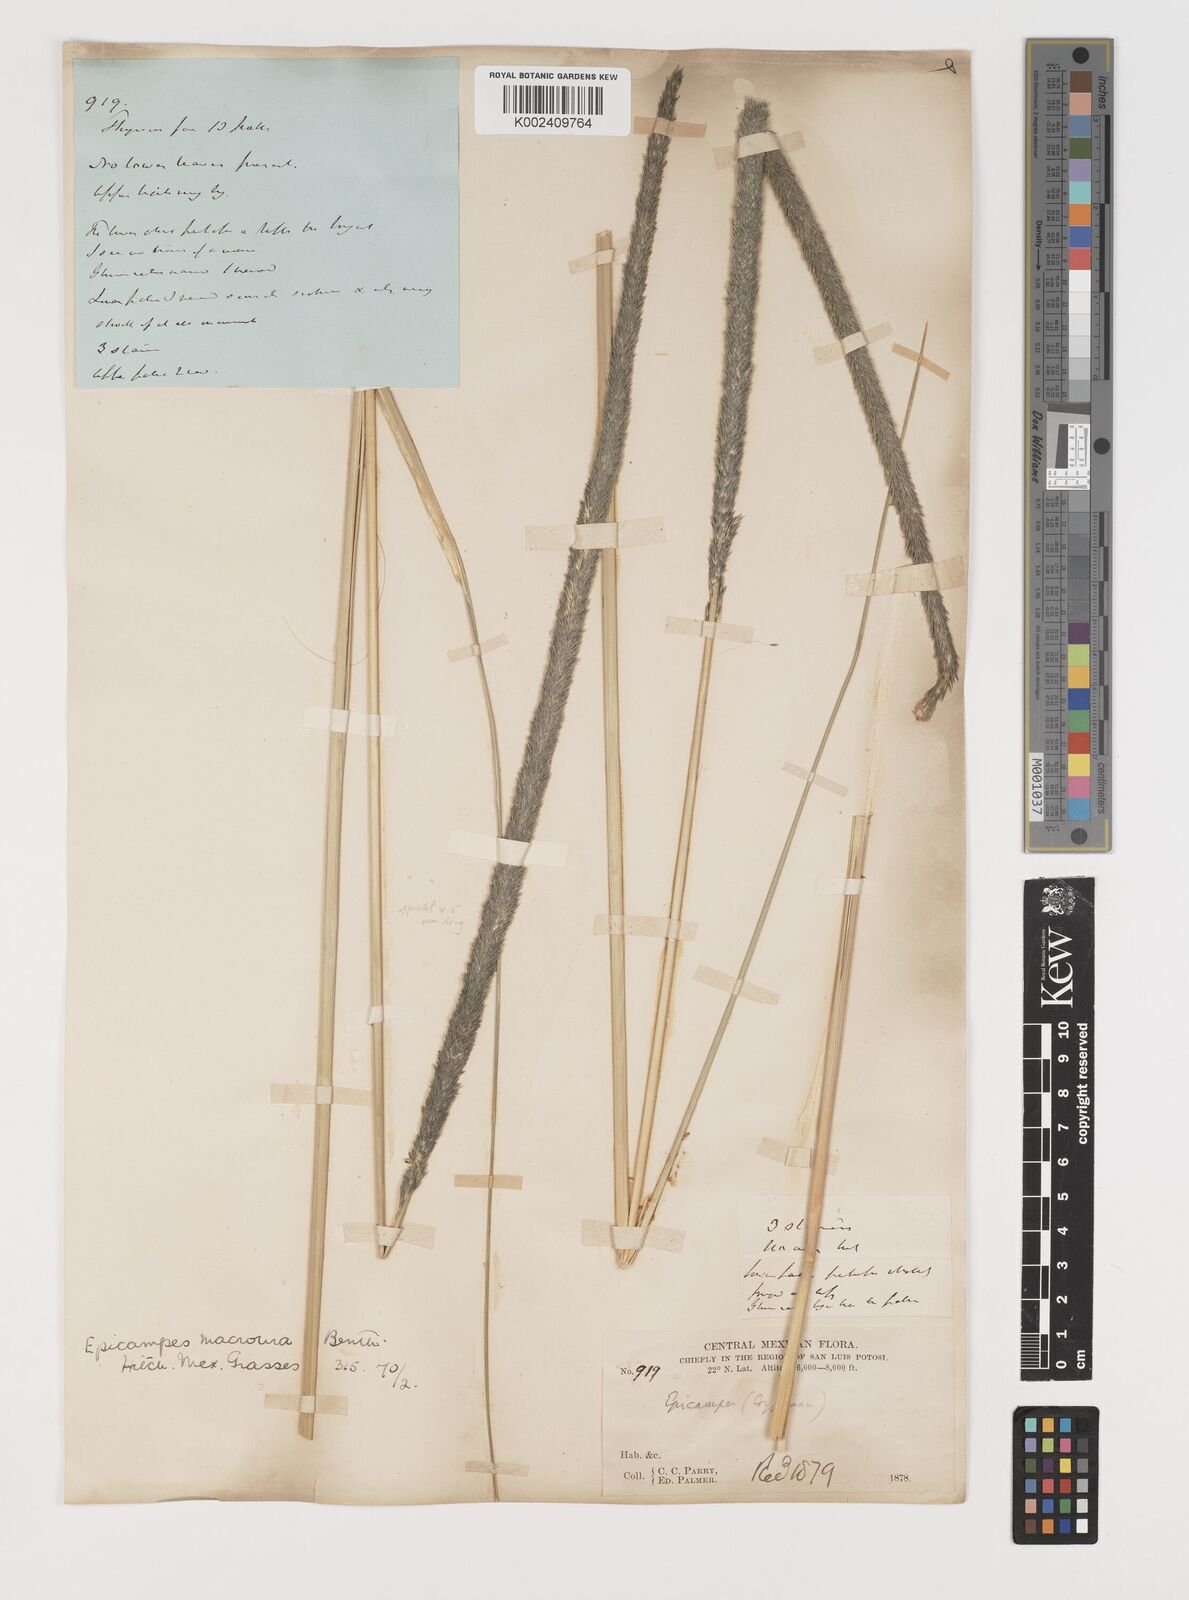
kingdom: Plantae
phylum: Tracheophyta
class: Liliopsida
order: Poales
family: Poaceae
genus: Muhlenbergia
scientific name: Muhlenbergia macroura
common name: Mexican broomroot
